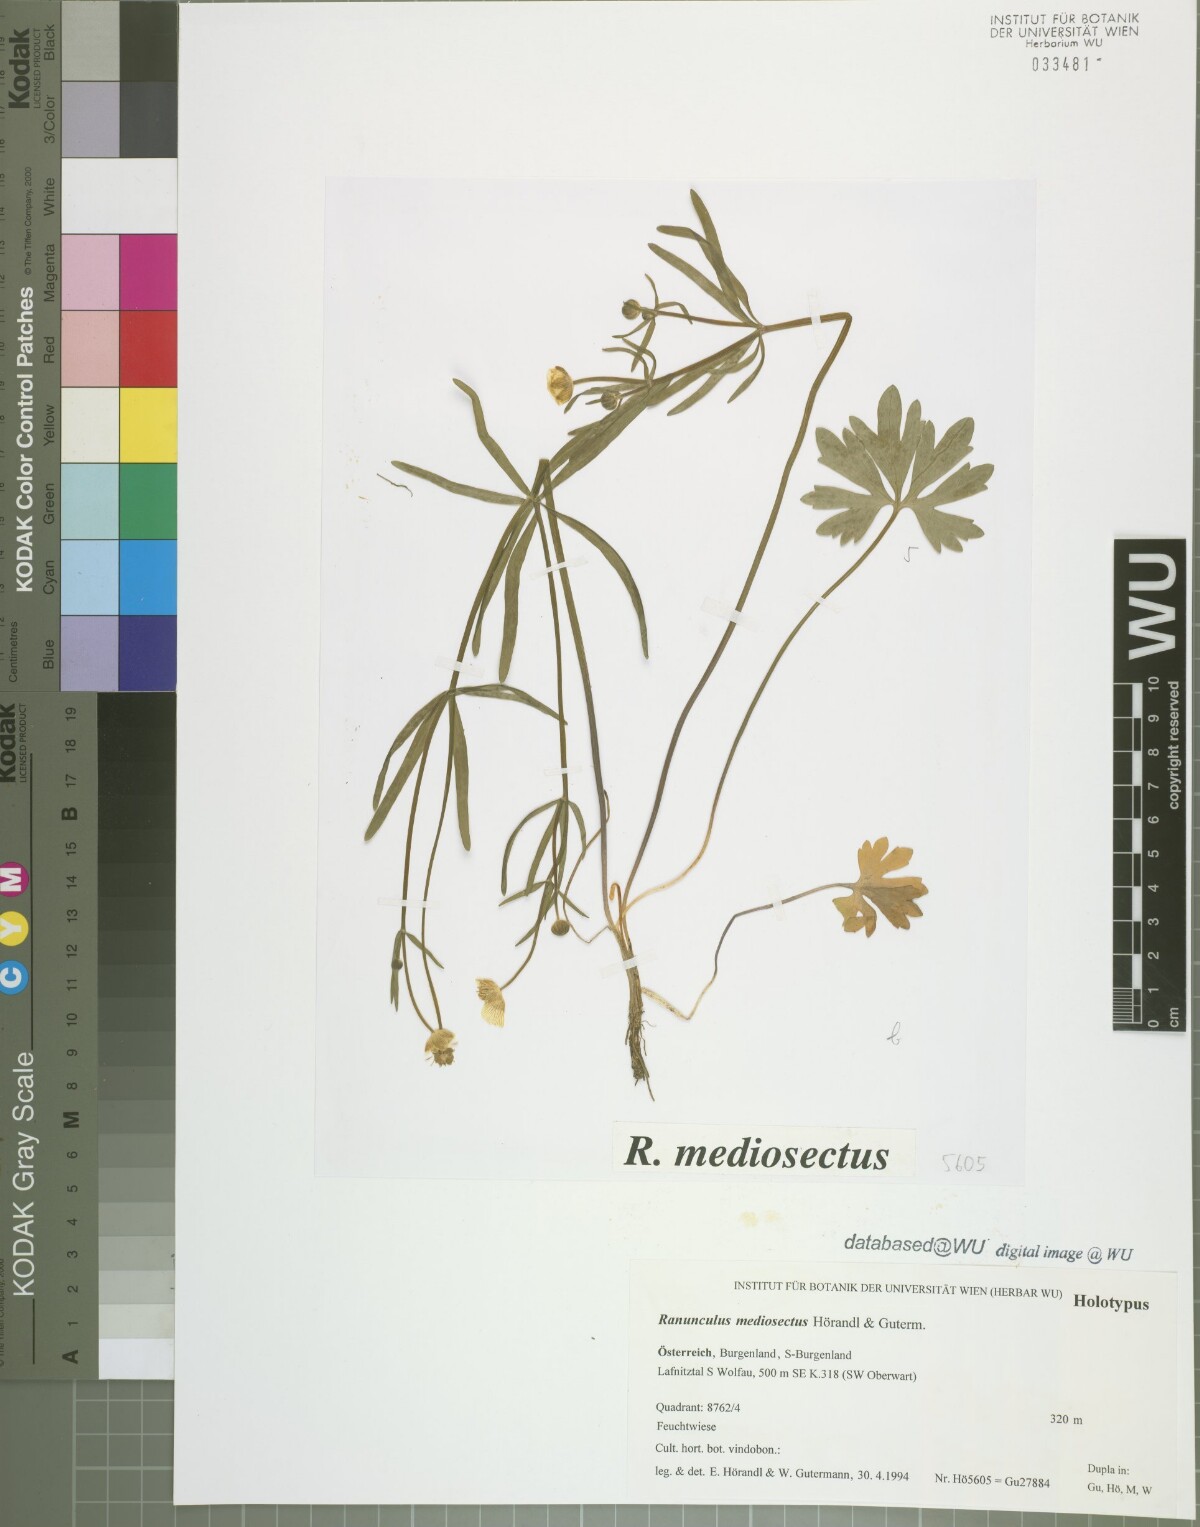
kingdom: Plantae
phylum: Tracheophyta
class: Magnoliopsida
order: Ranunculales
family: Ranunculaceae
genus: Ranunculus
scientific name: Ranunculus mediosectus
